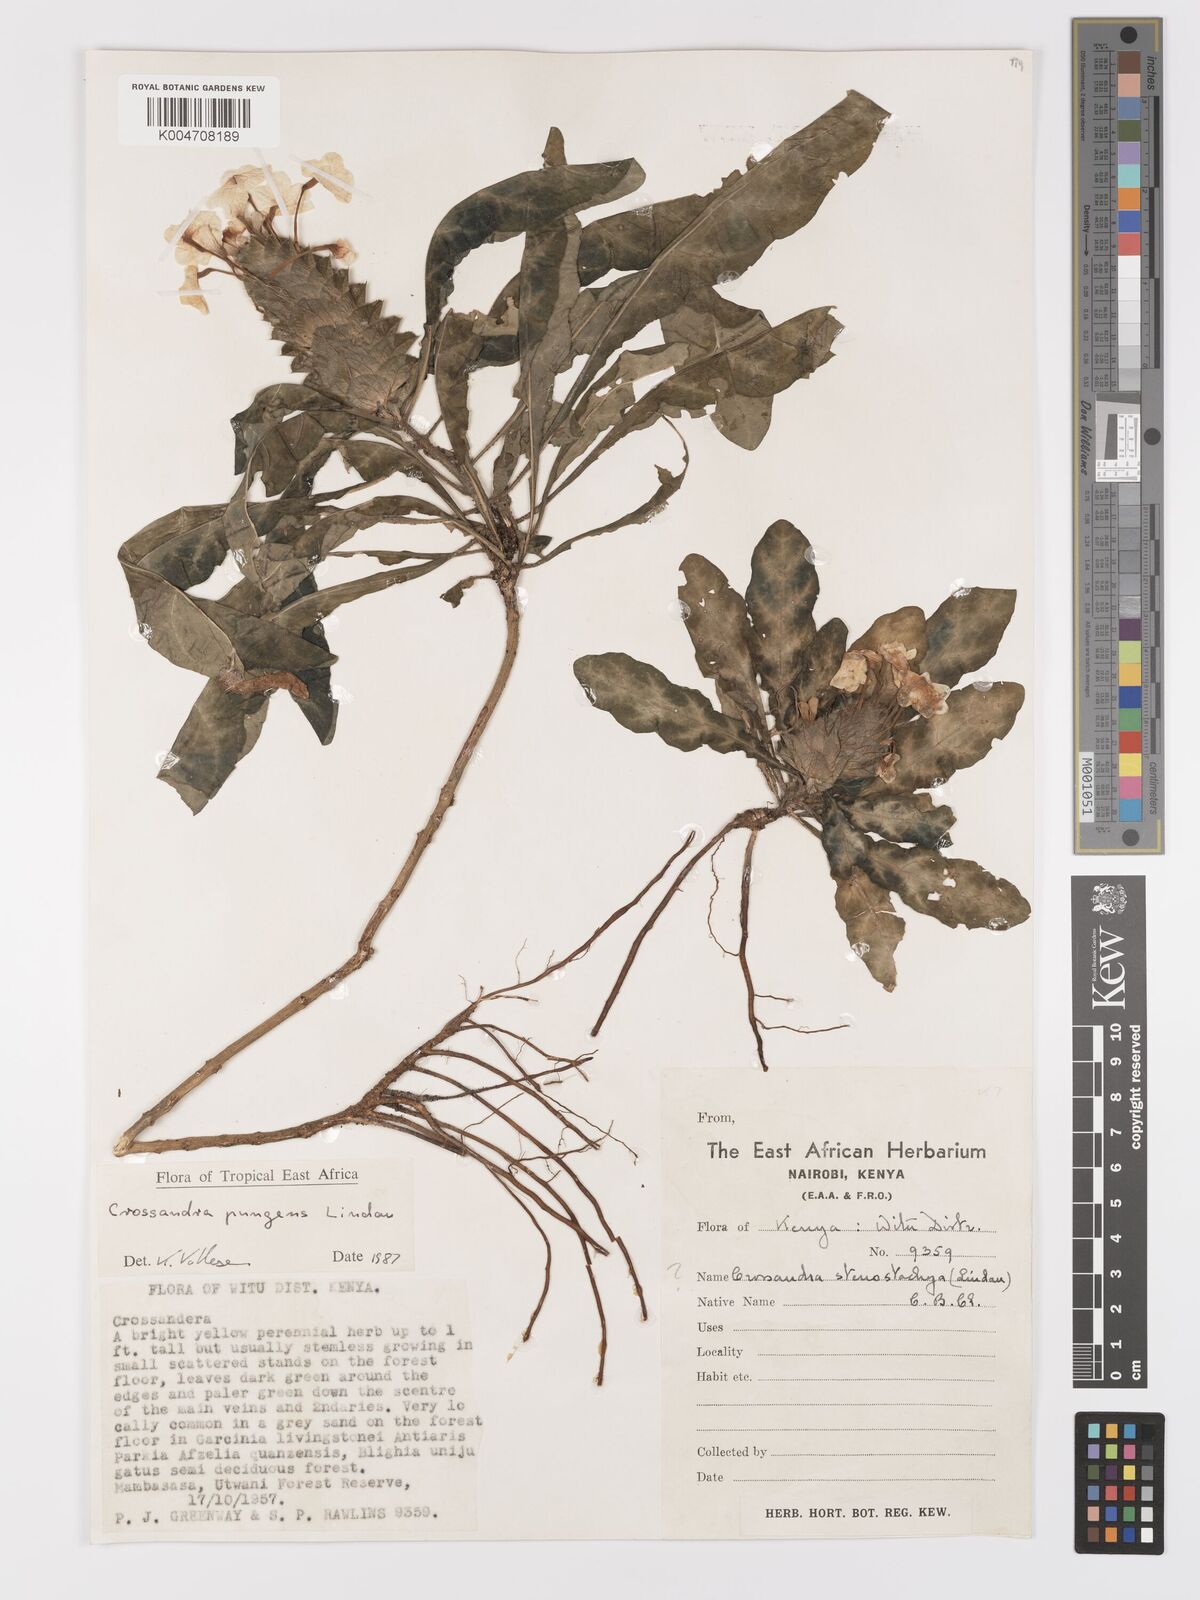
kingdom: Plantae
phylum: Tracheophyta
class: Magnoliopsida
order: Lamiales
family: Acanthaceae
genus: Crossandra
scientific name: Crossandra pungens
